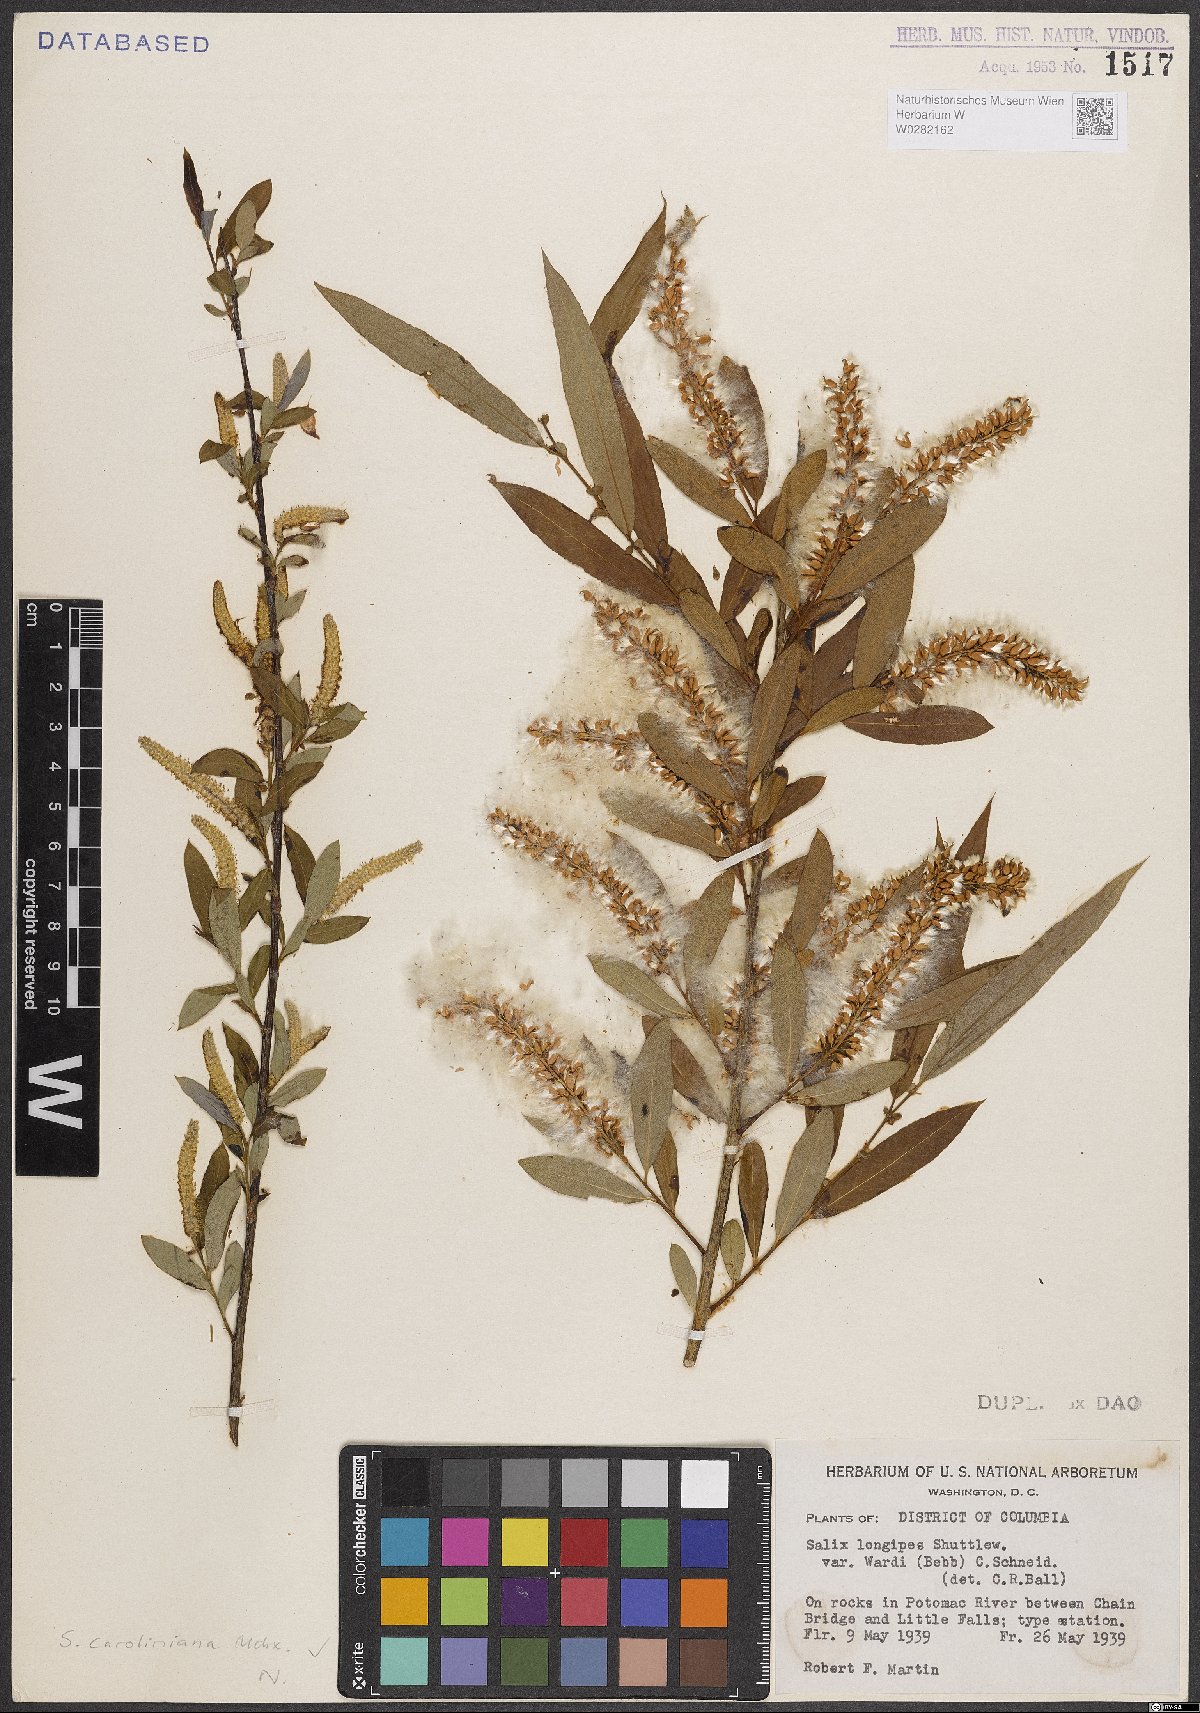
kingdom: Plantae
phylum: Tracheophyta
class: Magnoliopsida
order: Malpighiales
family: Salicaceae
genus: Salix
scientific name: Salix caroliniana
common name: Carolina willow
